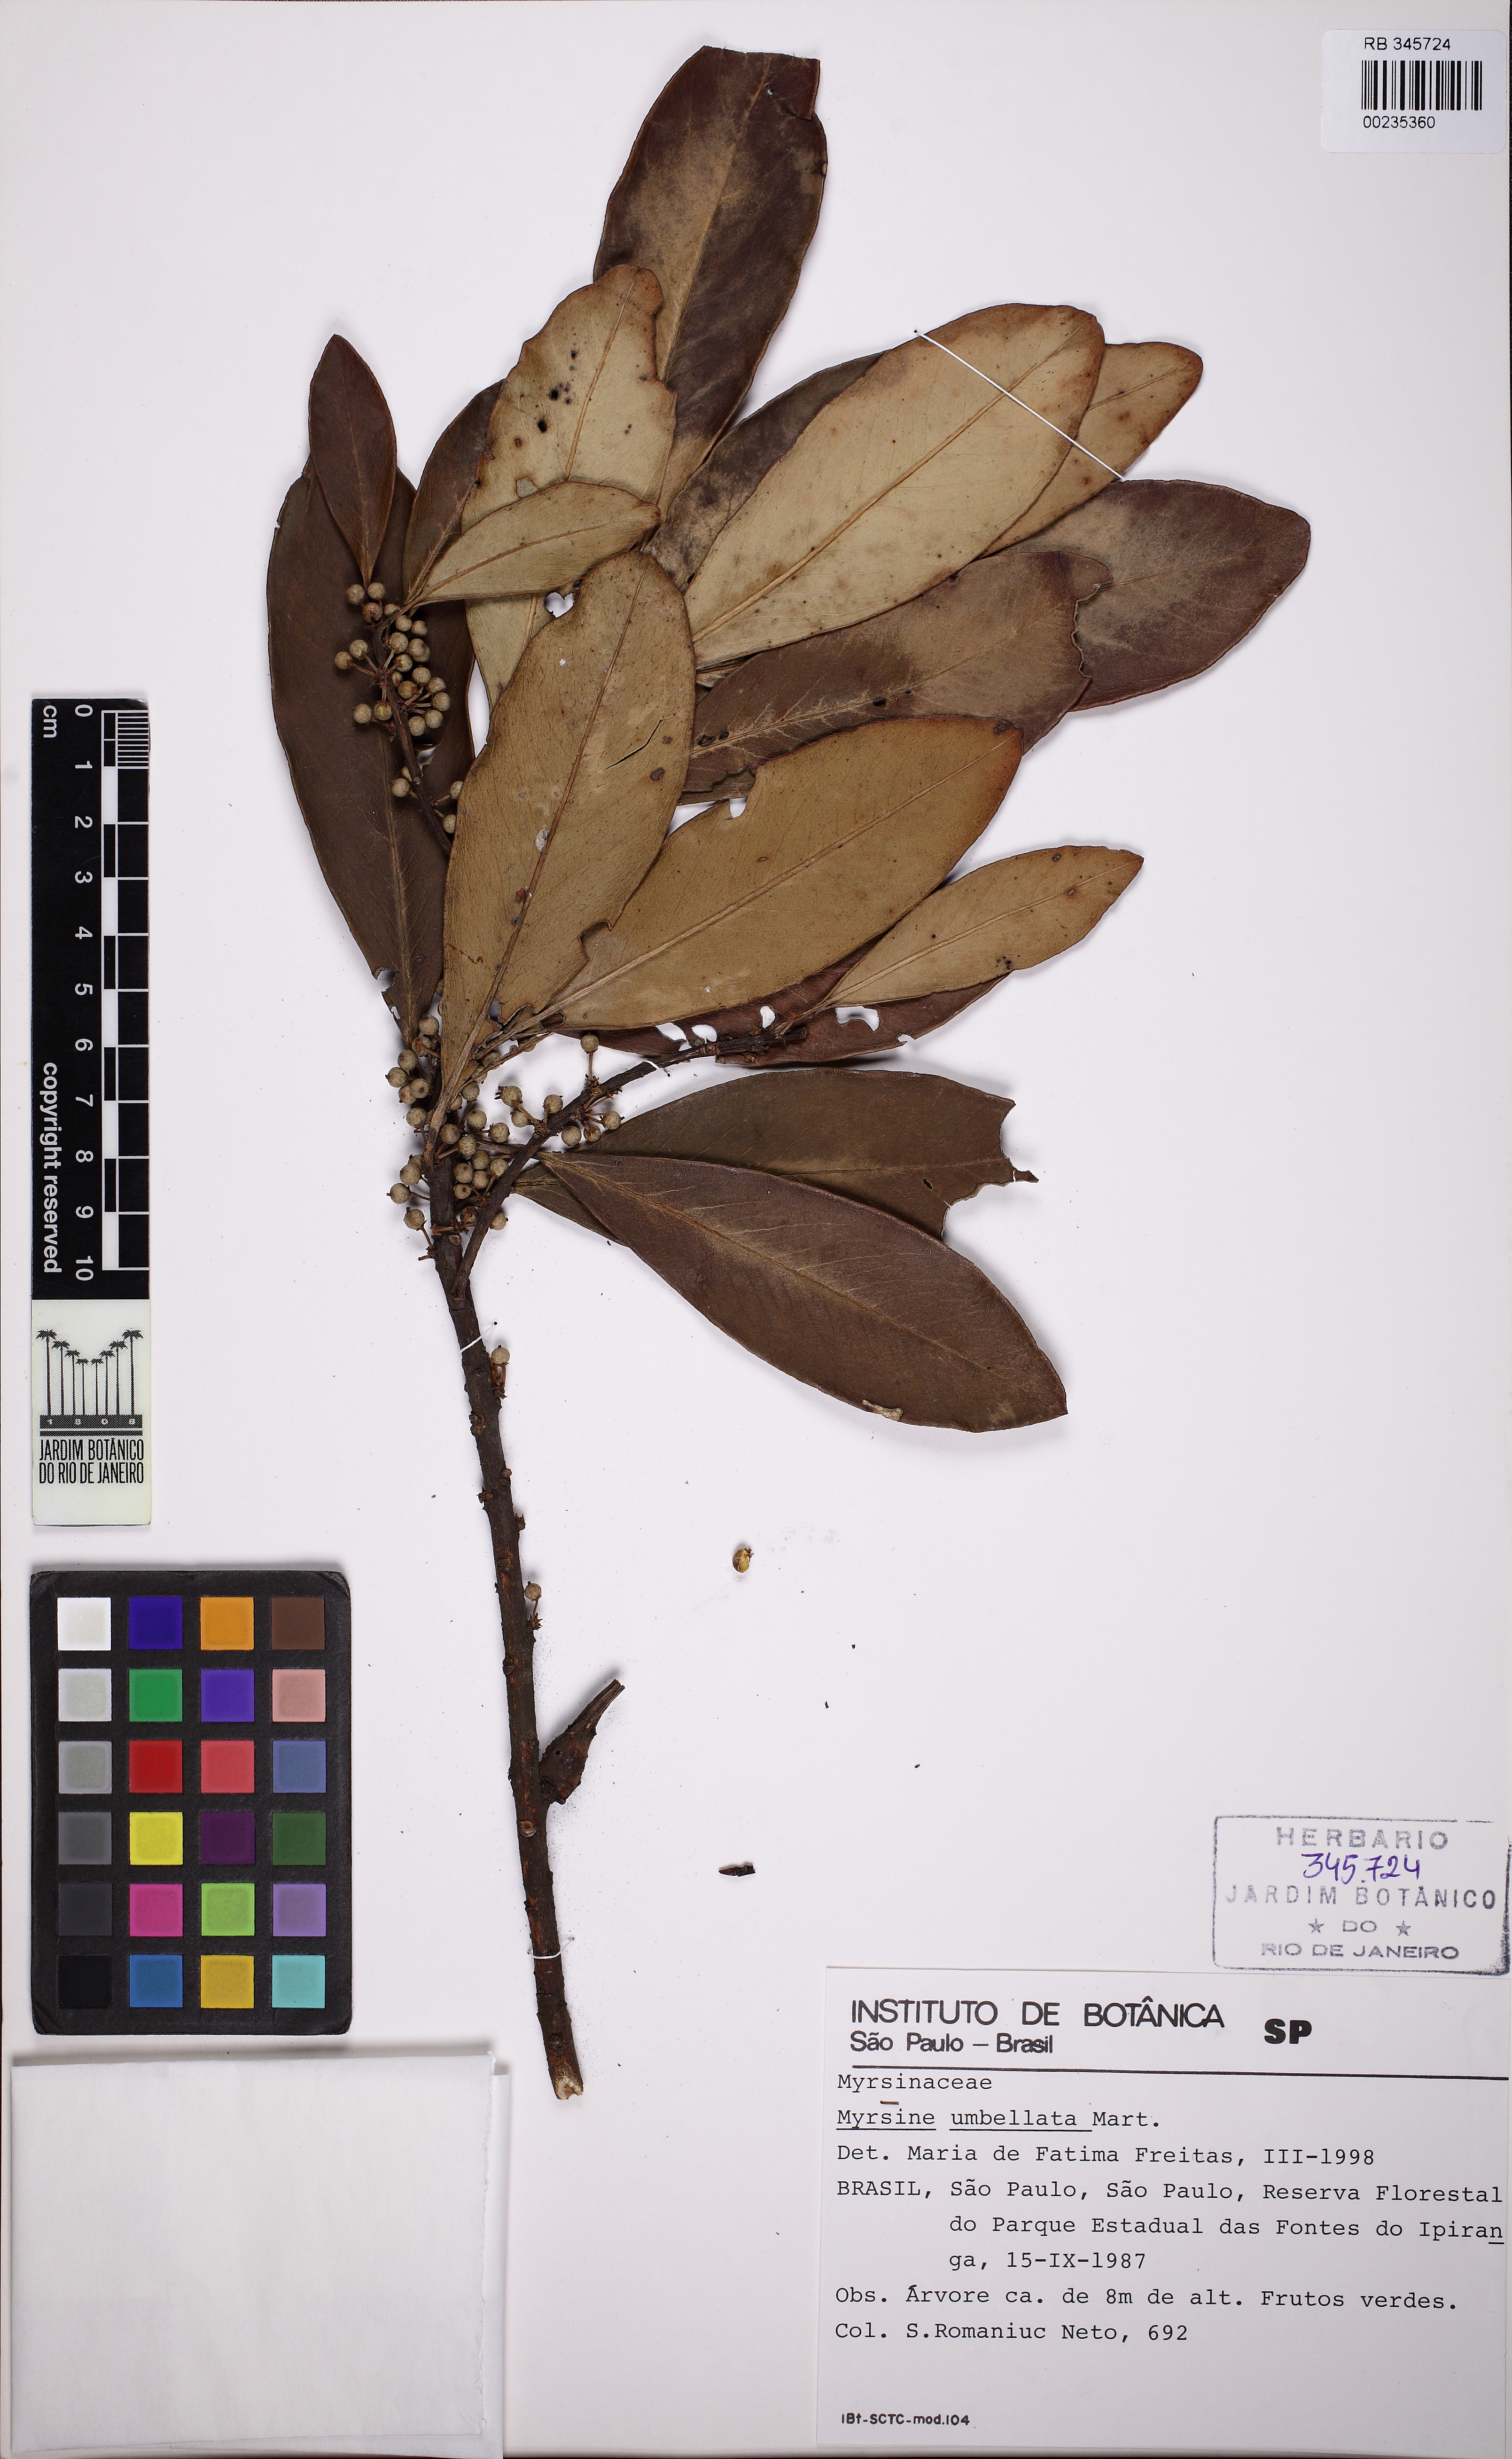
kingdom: Plantae
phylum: Tracheophyta
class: Magnoliopsida
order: Ericales
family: Primulaceae
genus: Myrsine
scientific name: Myrsine umbellata
